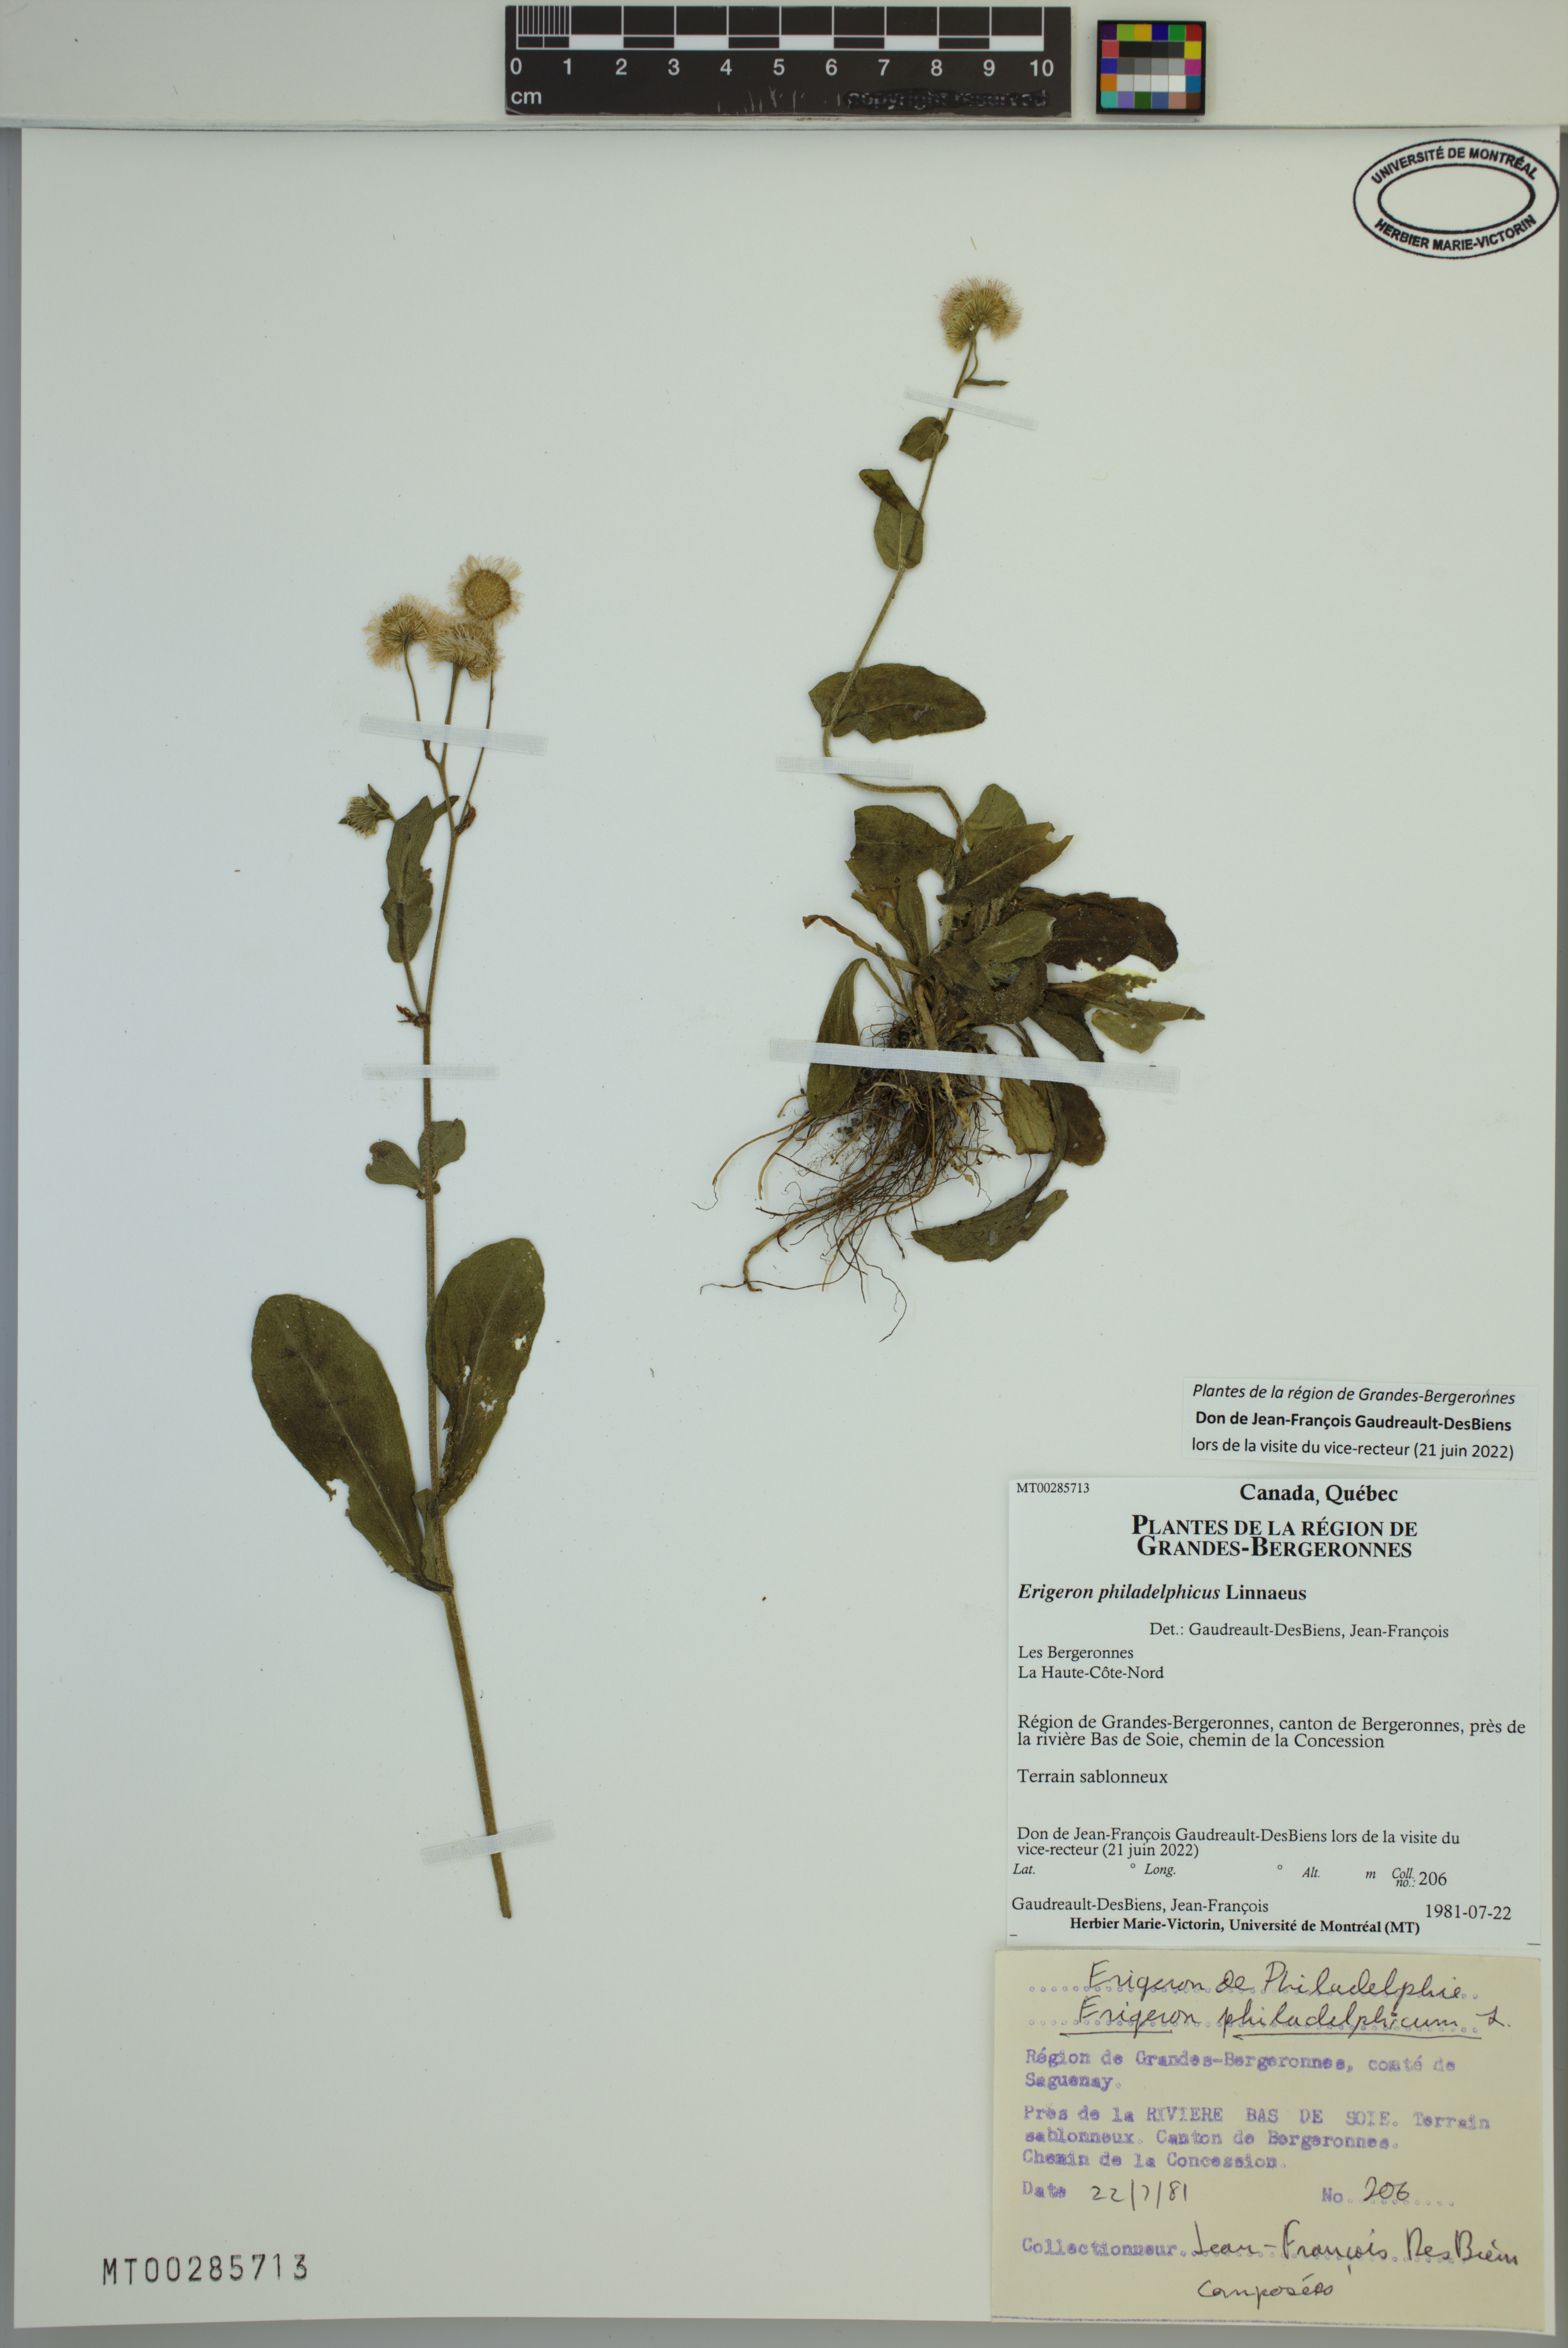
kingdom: Plantae
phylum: Tracheophyta
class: Magnoliopsida
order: Asterales
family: Asteraceae
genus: Erigeron
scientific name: Erigeron philadelphicus
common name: Robin's-plantain
